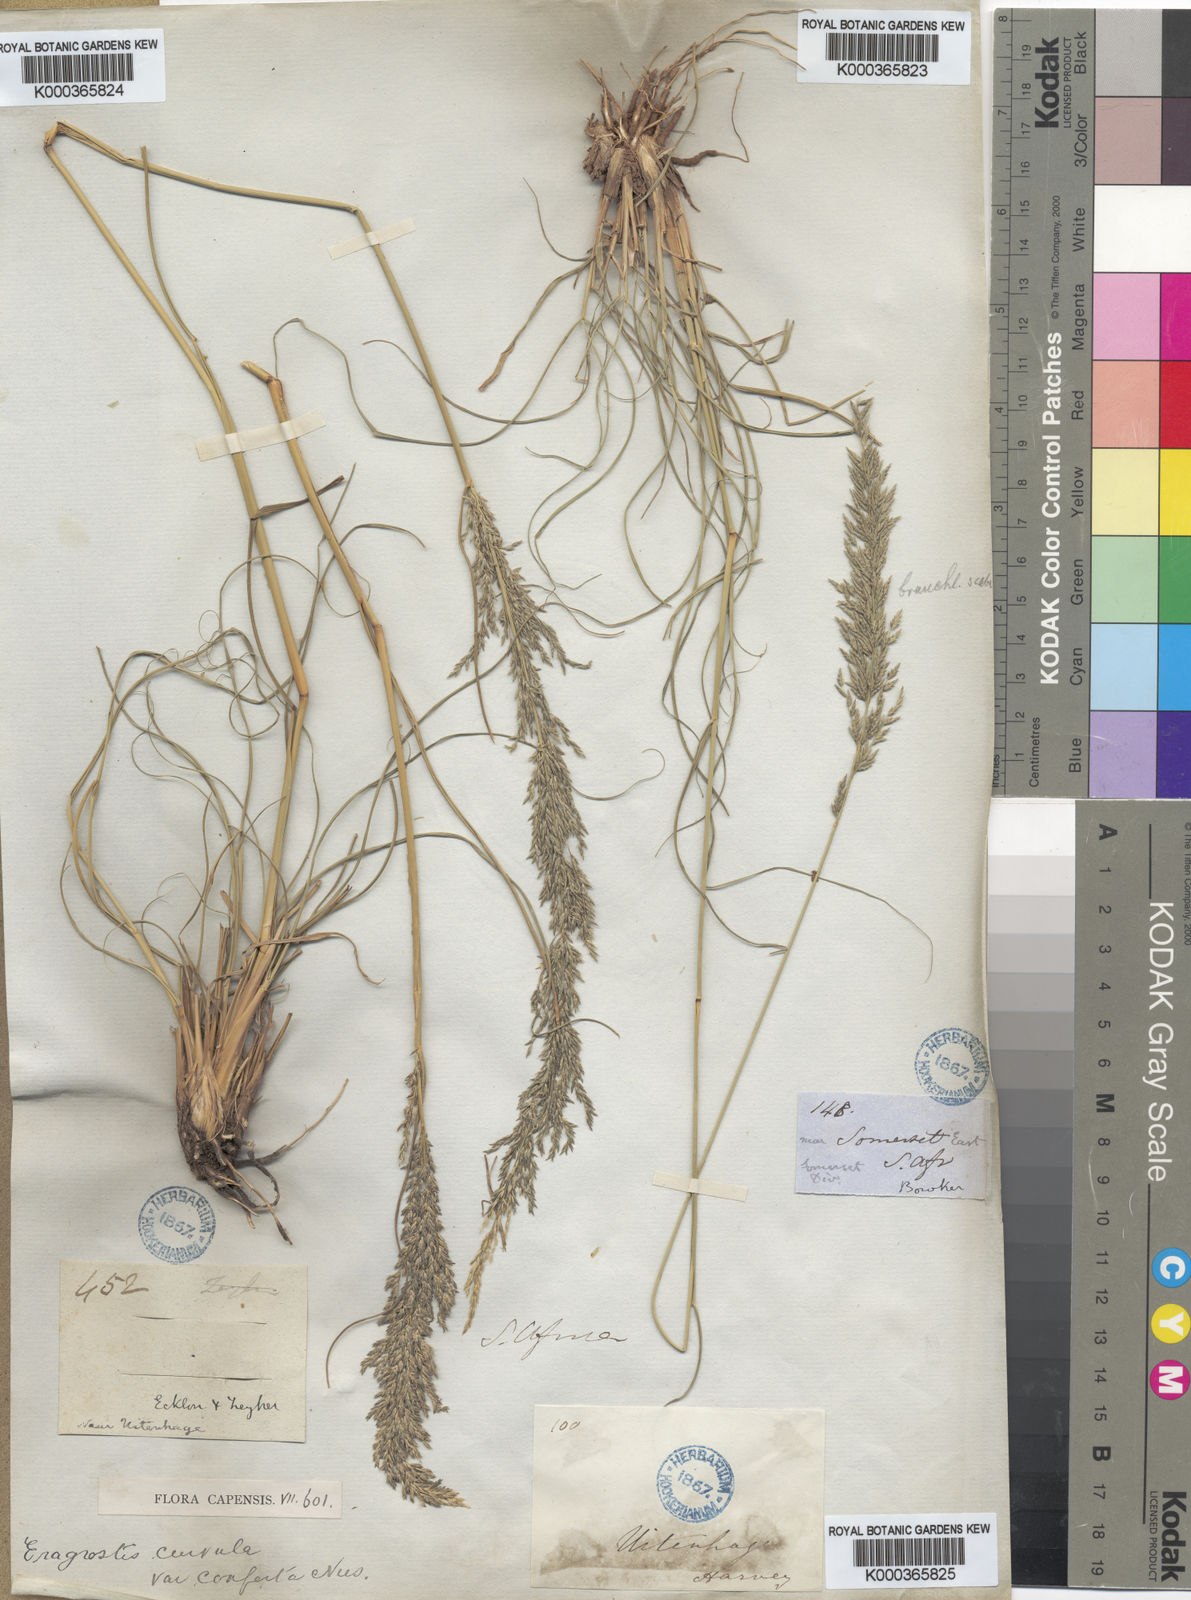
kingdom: Plantae
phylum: Tracheophyta
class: Liliopsida
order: Poales
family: Poaceae
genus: Eragrostis
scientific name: Eragrostis curvula
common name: African love-grass
